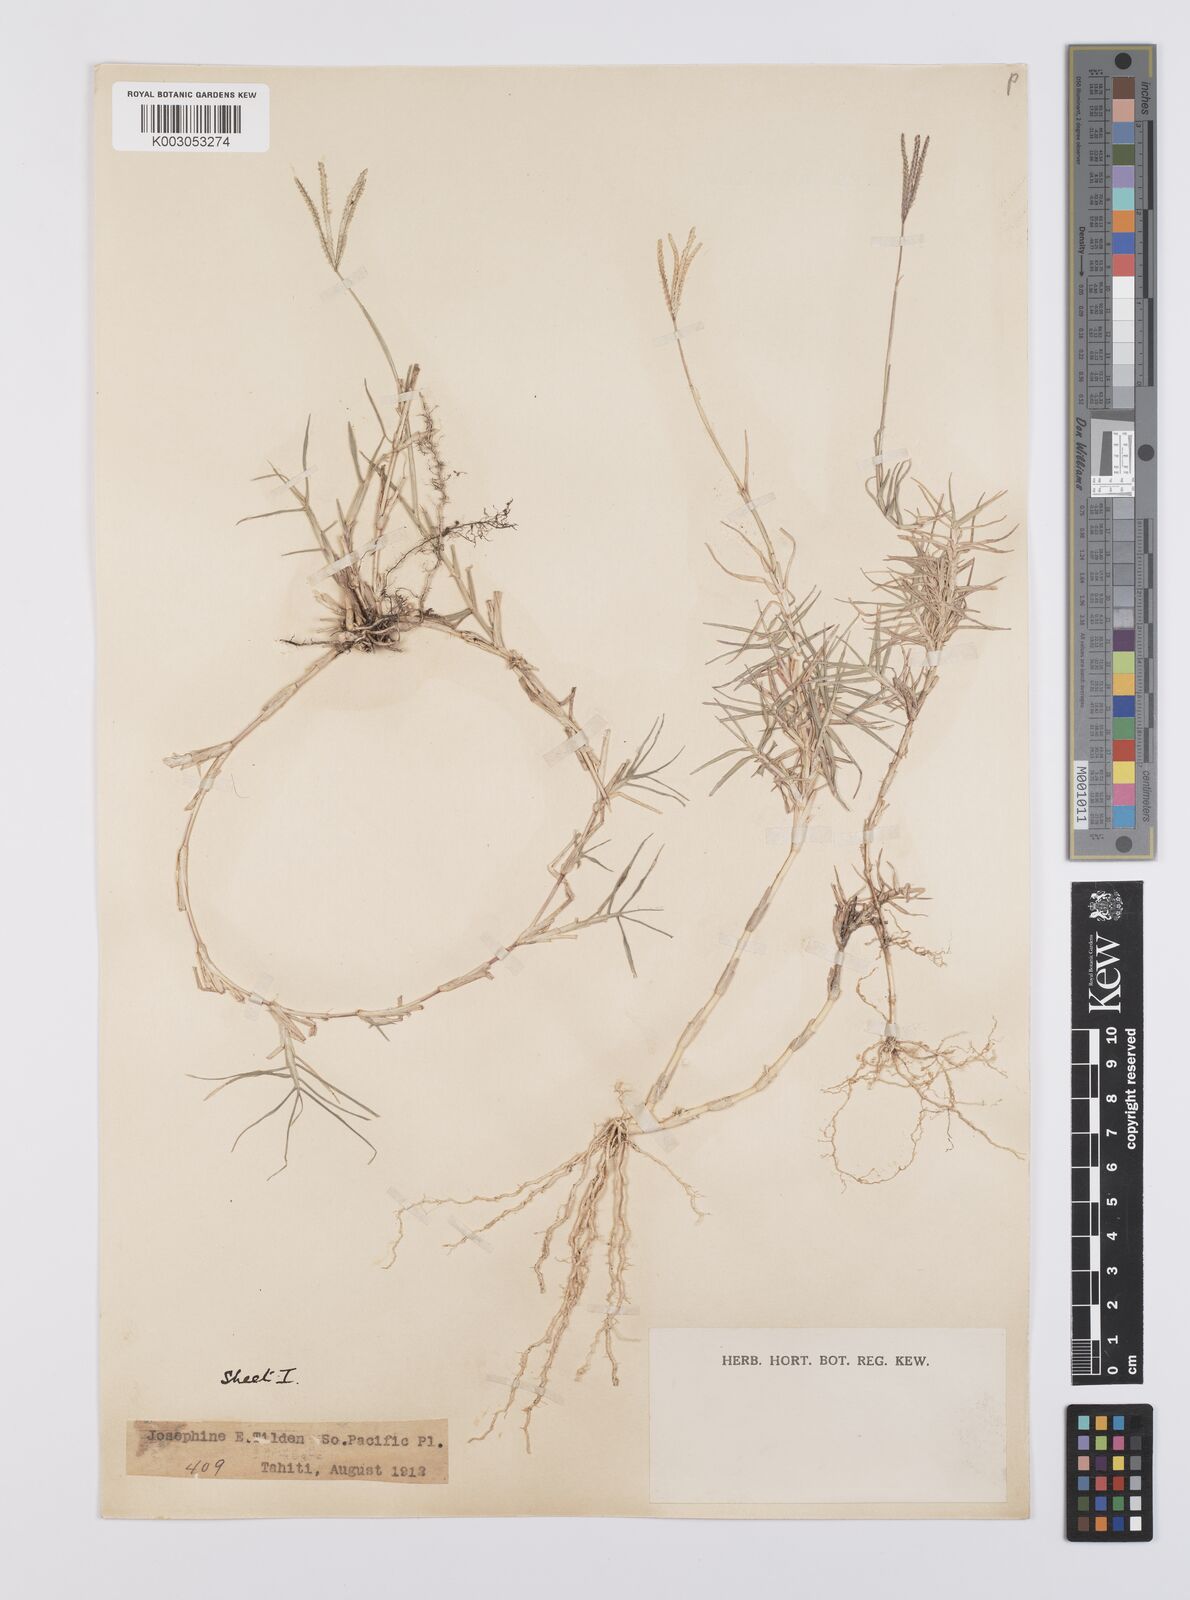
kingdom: Plantae
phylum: Tracheophyta
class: Liliopsida
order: Poales
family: Poaceae
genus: Cynodon
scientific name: Cynodon dactylon
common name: Bermuda grass
